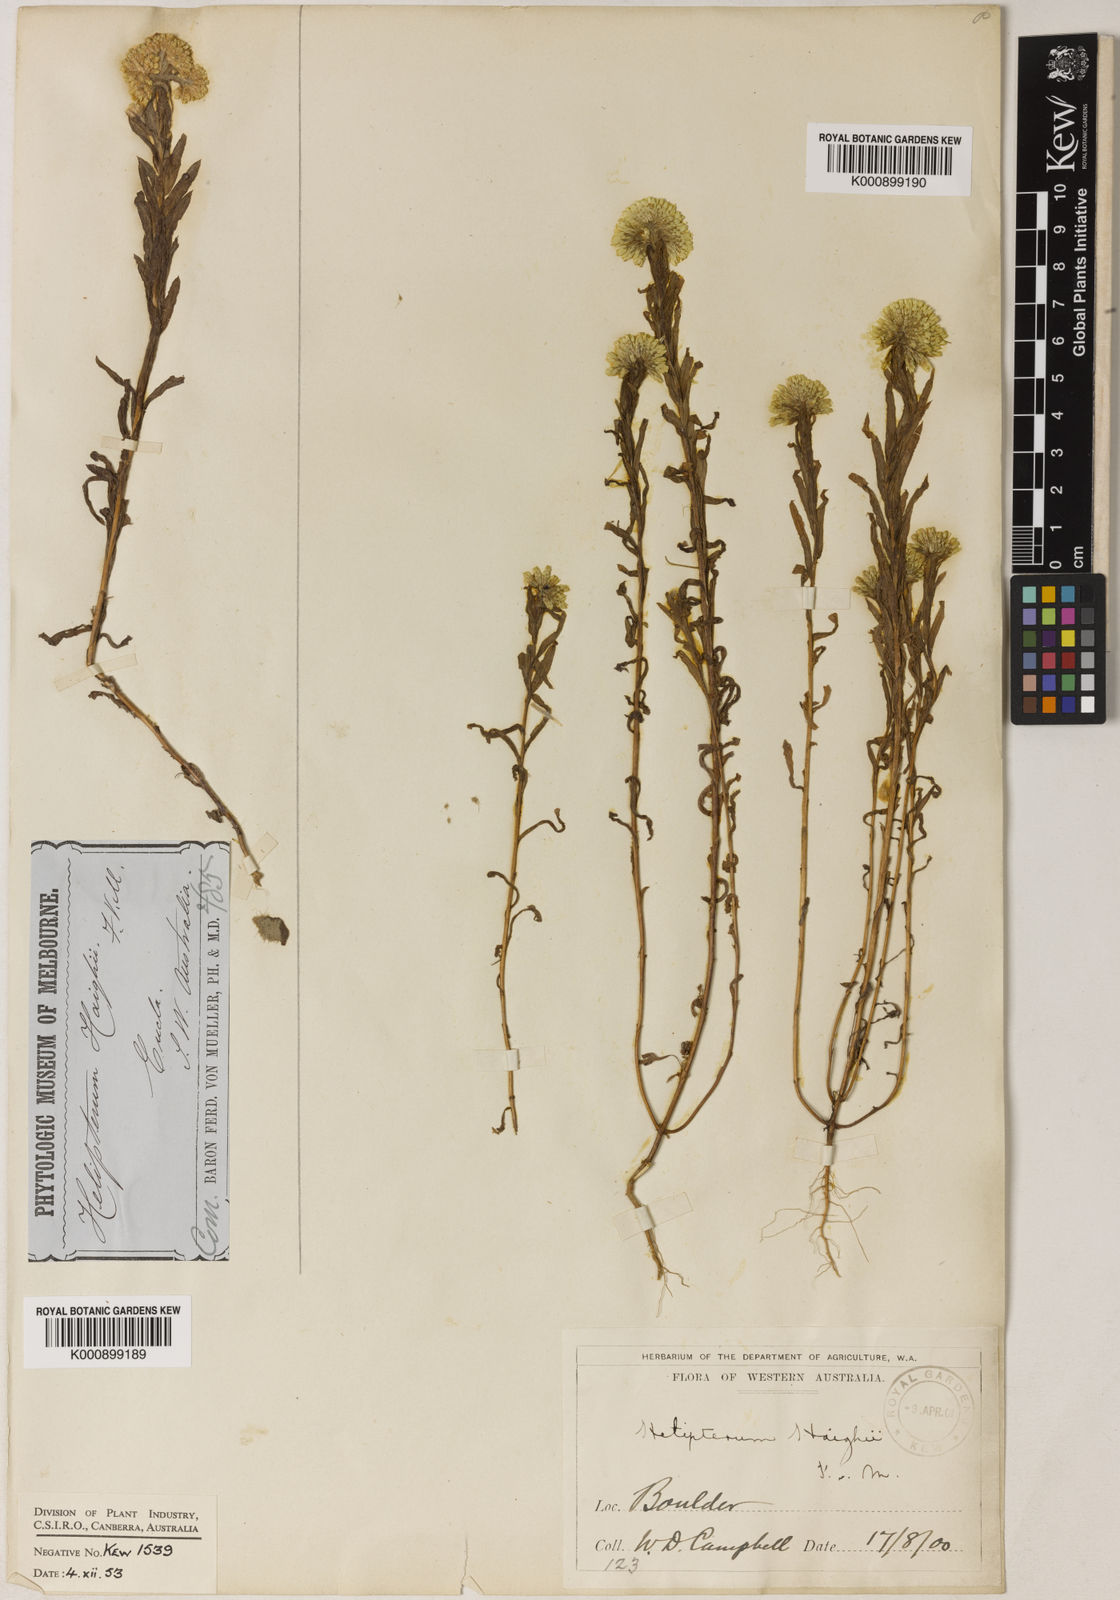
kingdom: Plantae
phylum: Tracheophyta
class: Magnoliopsida
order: Asterales
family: Asteraceae
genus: Rhodanthe
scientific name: Rhodanthe haigii
